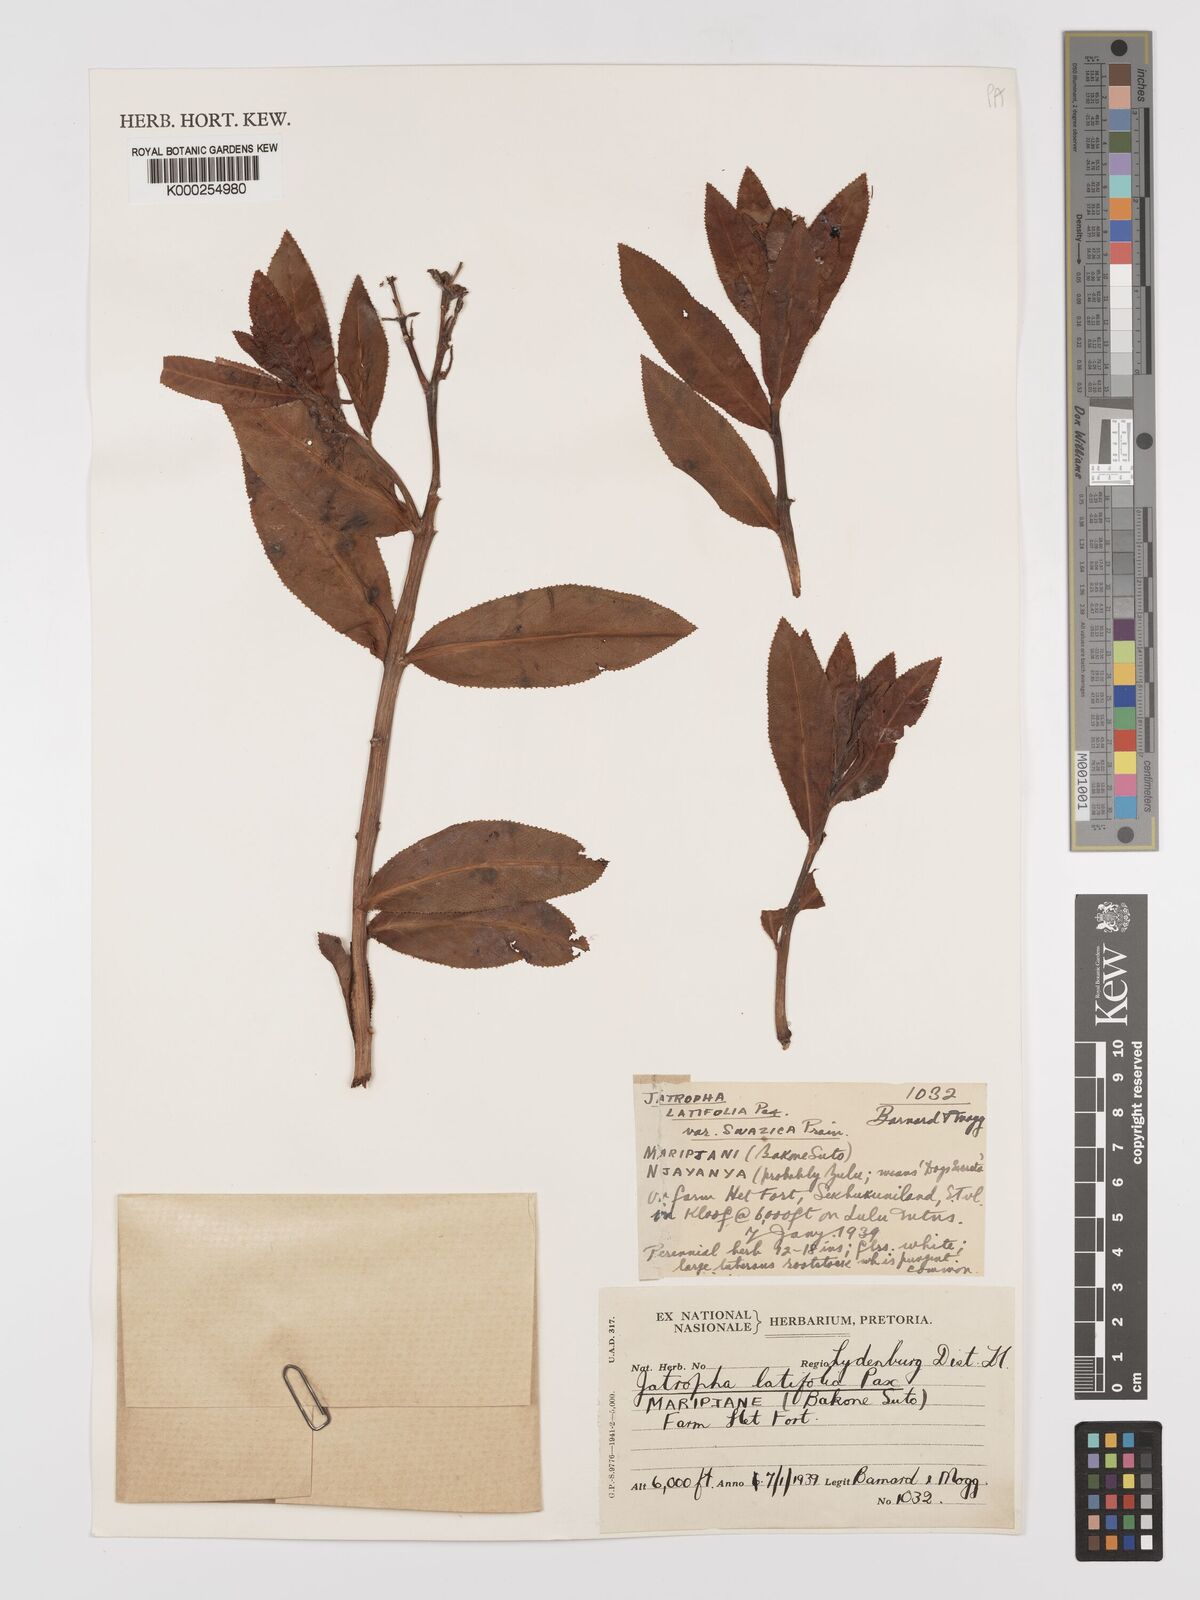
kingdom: Plantae
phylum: Tracheophyta
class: Magnoliopsida
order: Malpighiales
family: Euphorbiaceae
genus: Jatropha
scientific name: Jatropha latifolia
